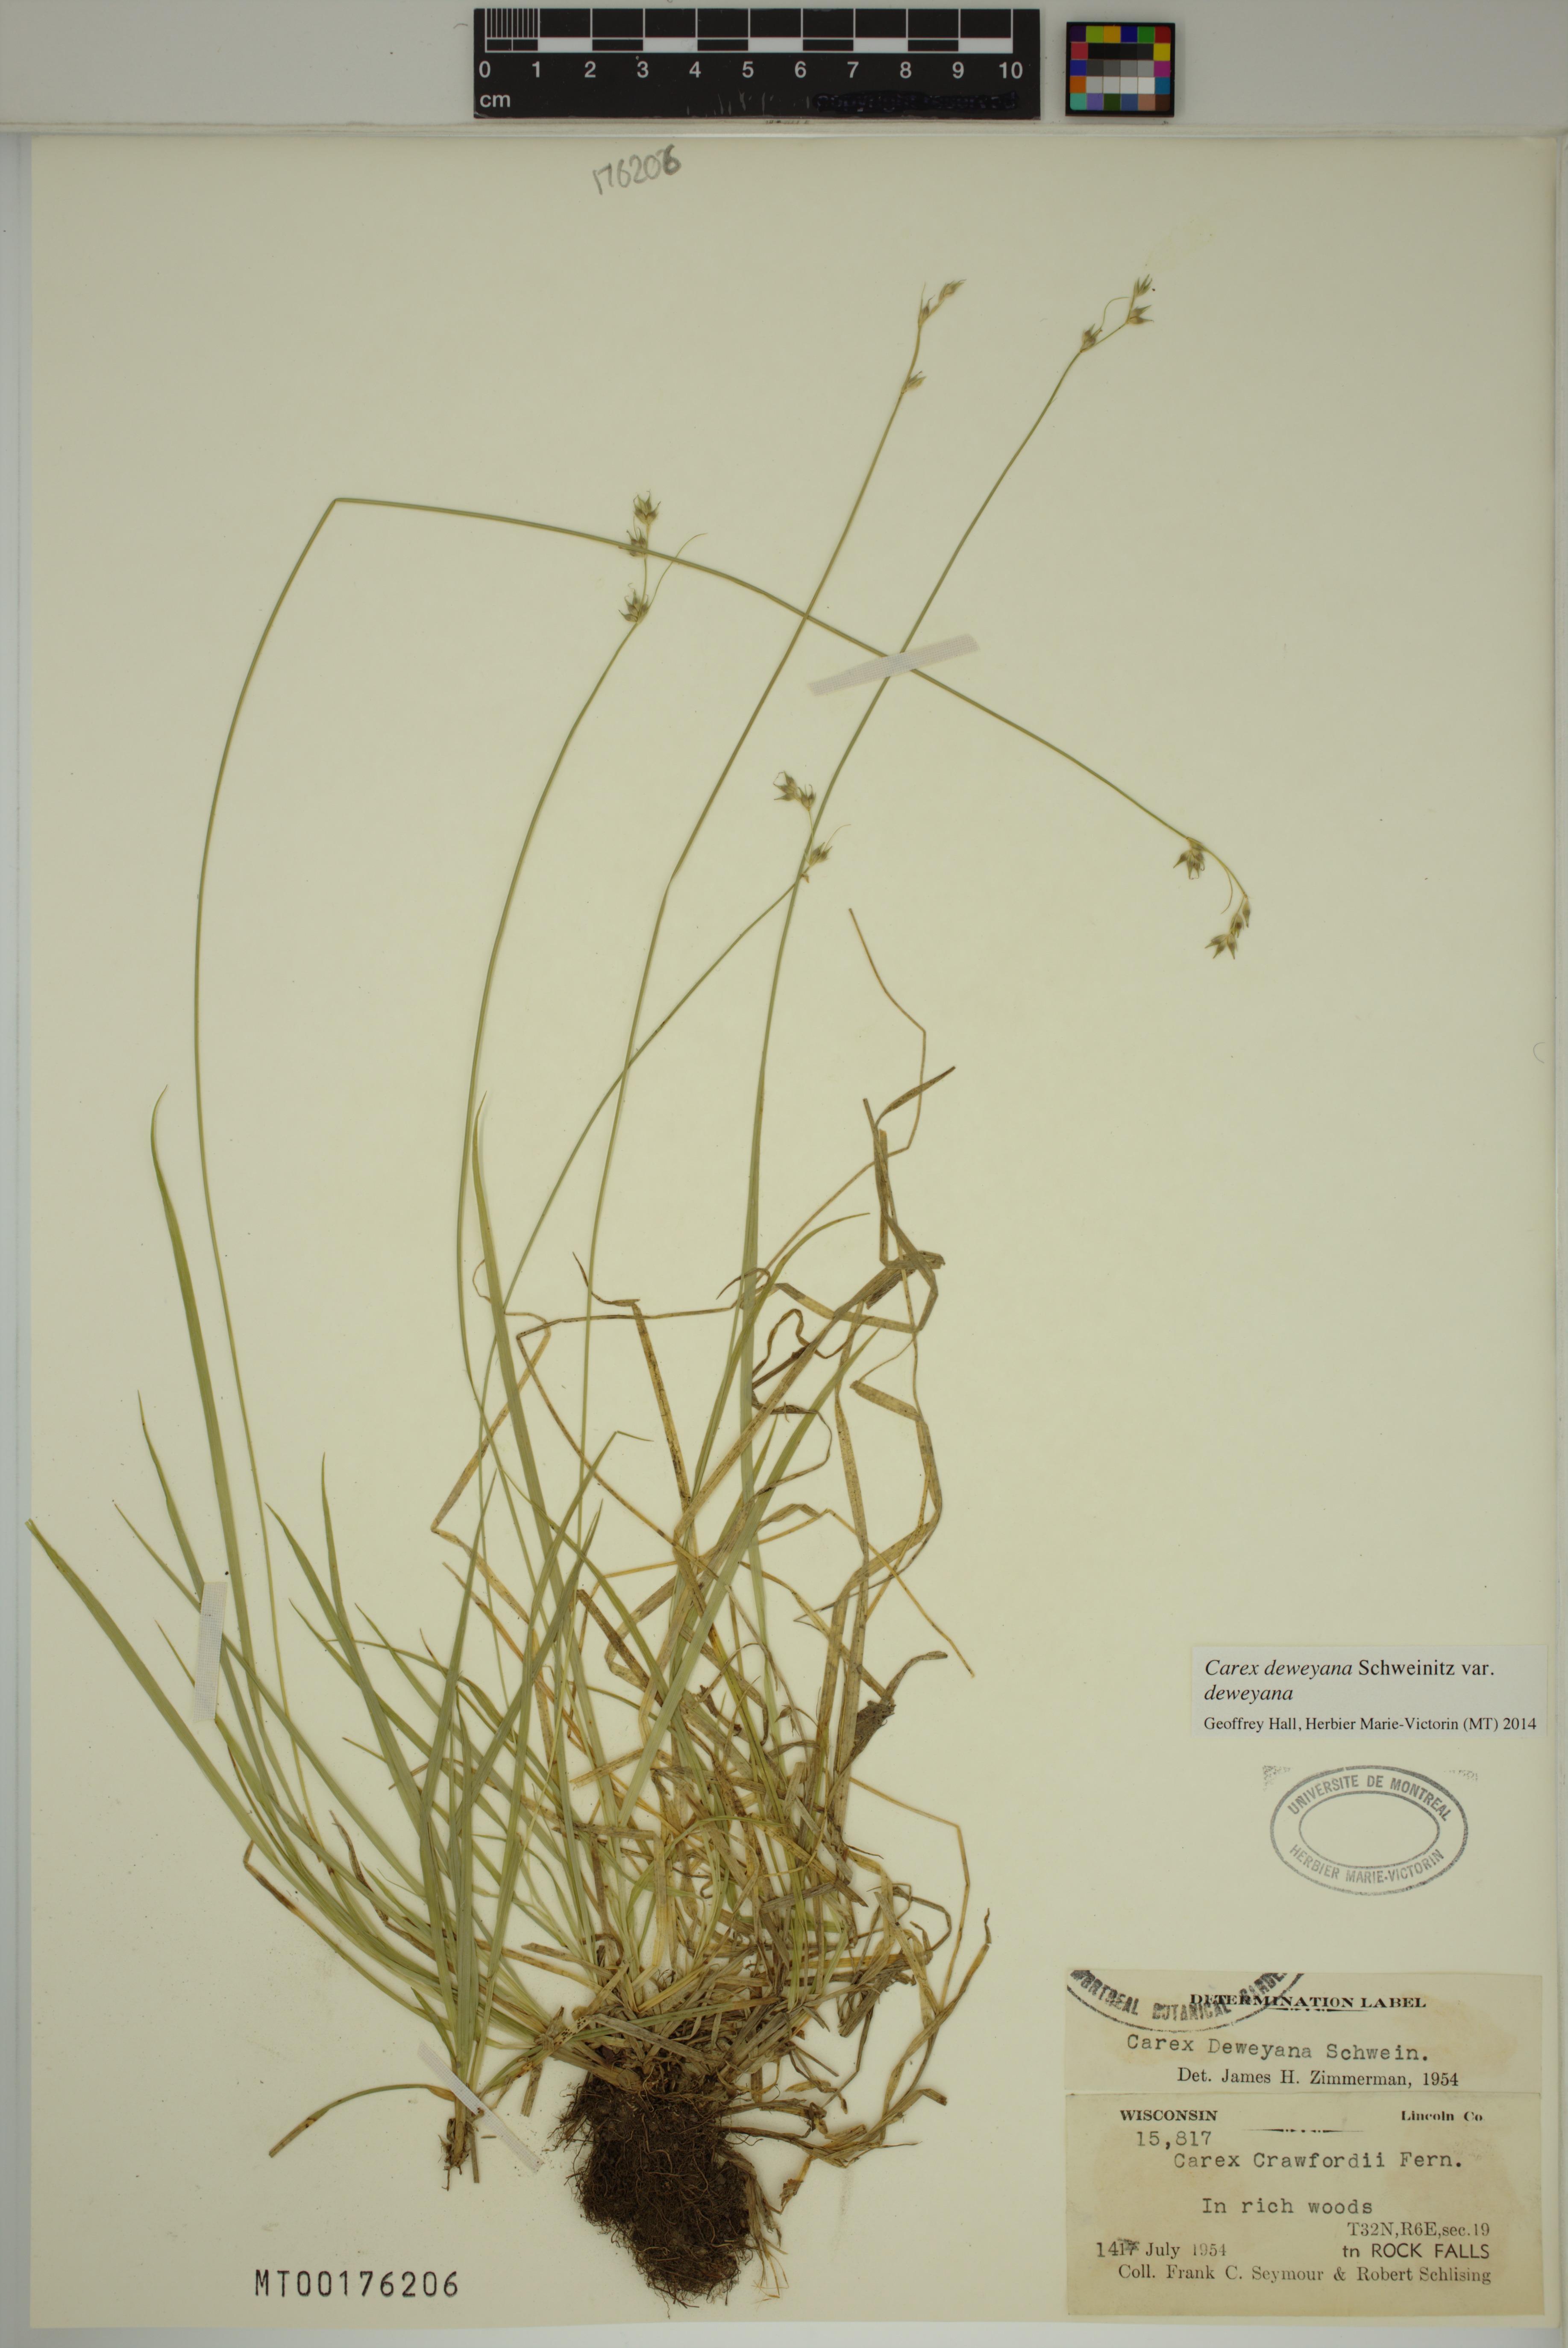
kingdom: Plantae
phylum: Tracheophyta
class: Liliopsida
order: Poales
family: Cyperaceae
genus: Carex
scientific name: Carex deweyana
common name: Dewey's sedge
